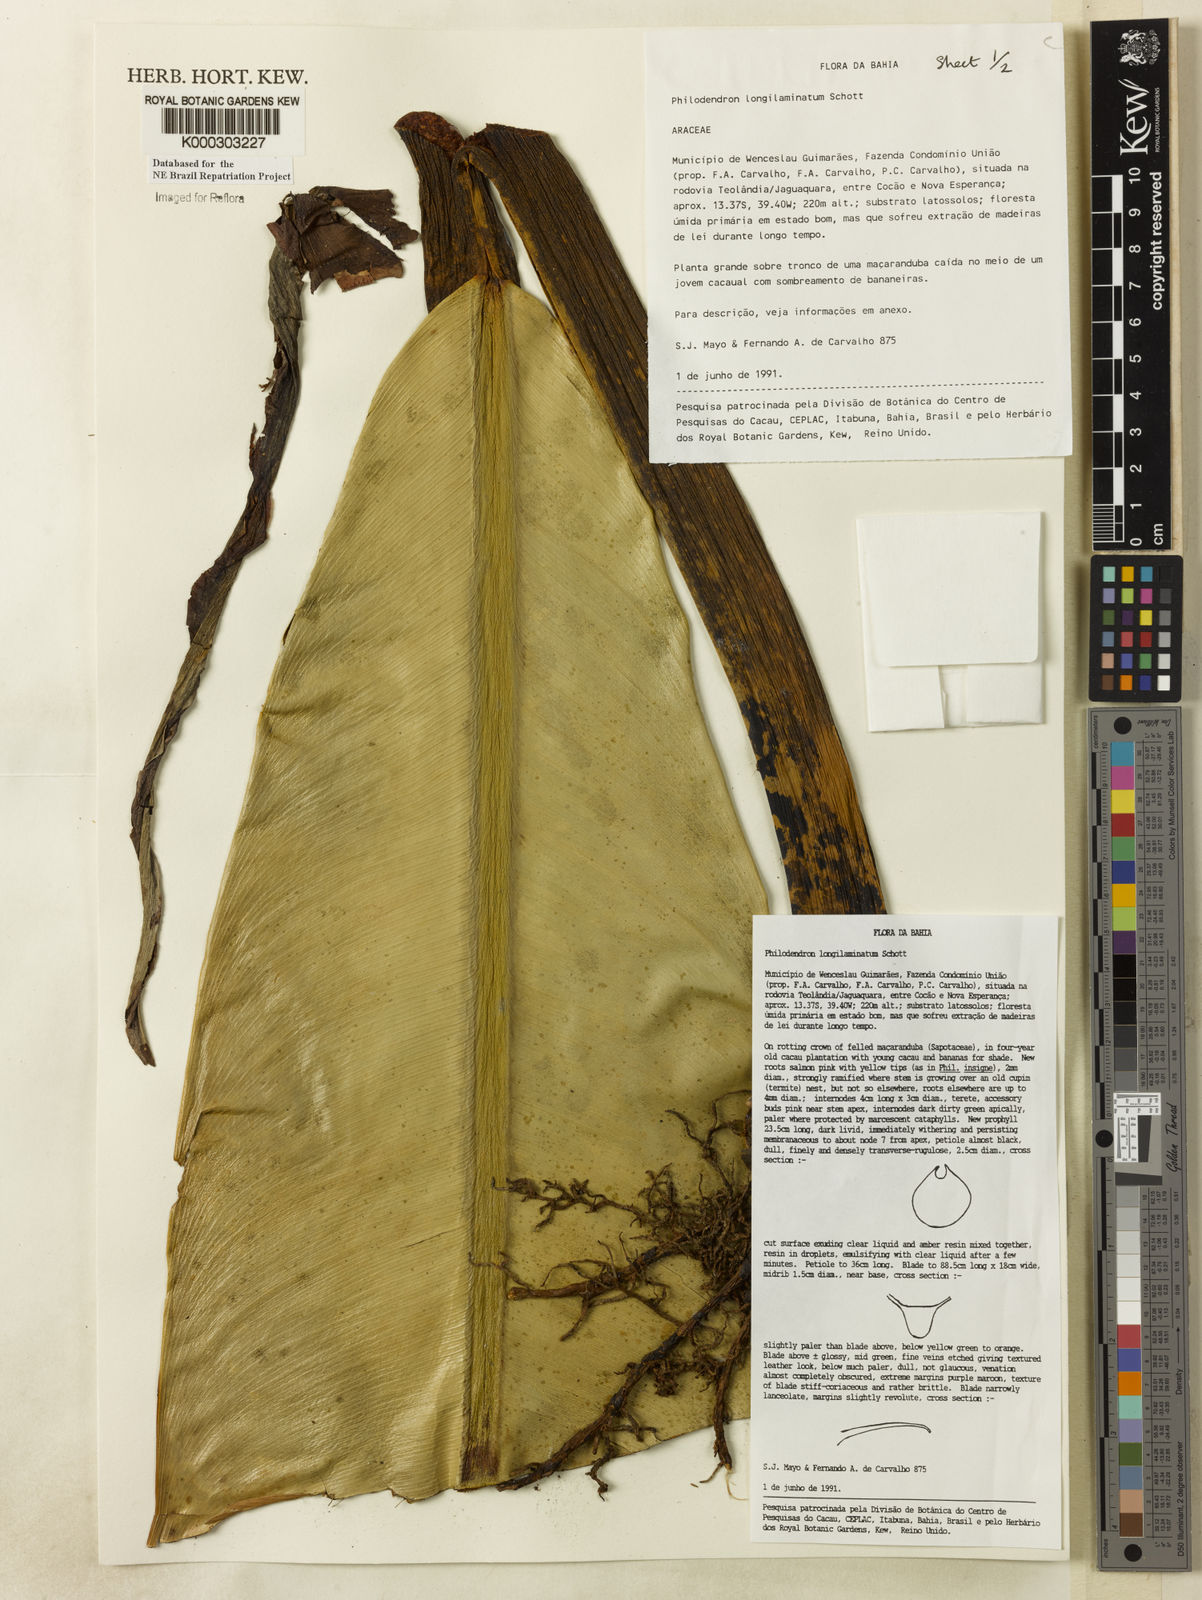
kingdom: Plantae
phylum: Tracheophyta
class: Liliopsida
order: Alismatales
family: Araceae
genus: Philodendron
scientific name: Philodendron longilaminatum
